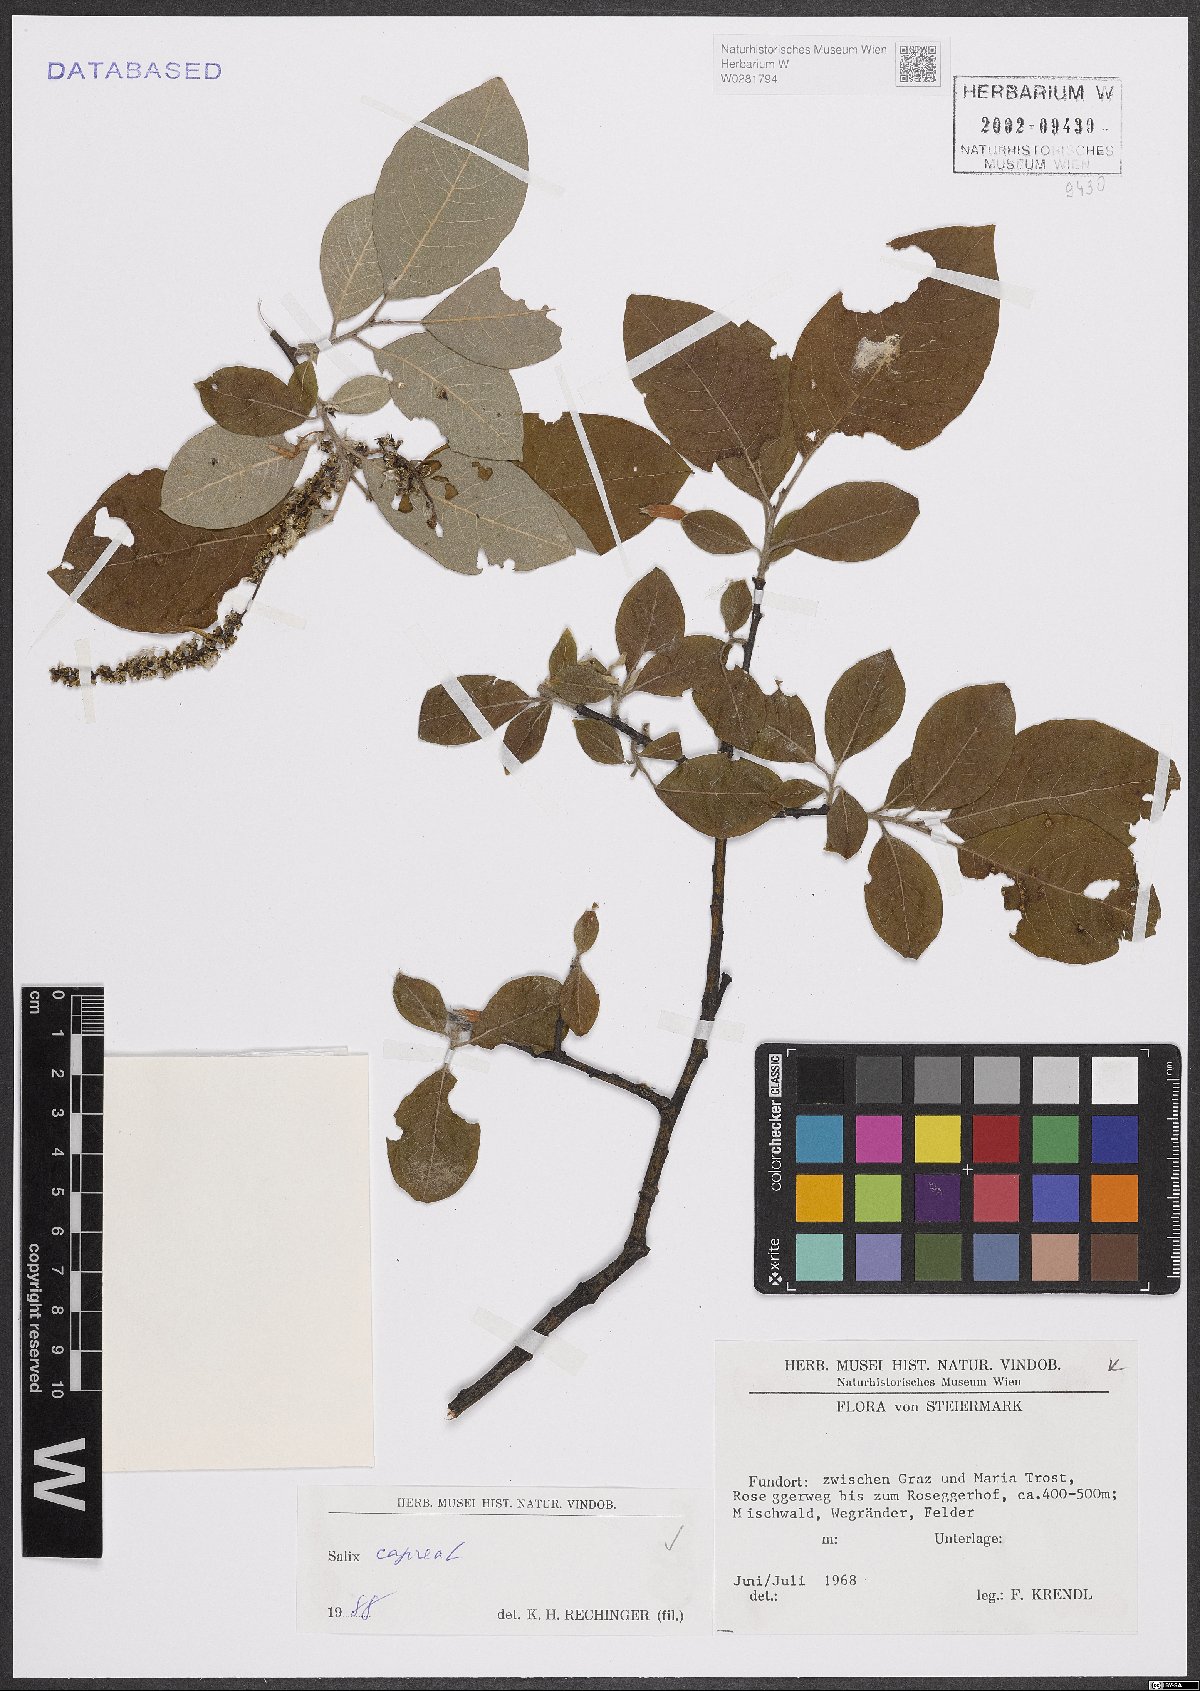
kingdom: Plantae
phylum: Tracheophyta
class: Magnoliopsida
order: Malpighiales
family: Salicaceae
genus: Salix
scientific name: Salix caprea
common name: Goat willow
